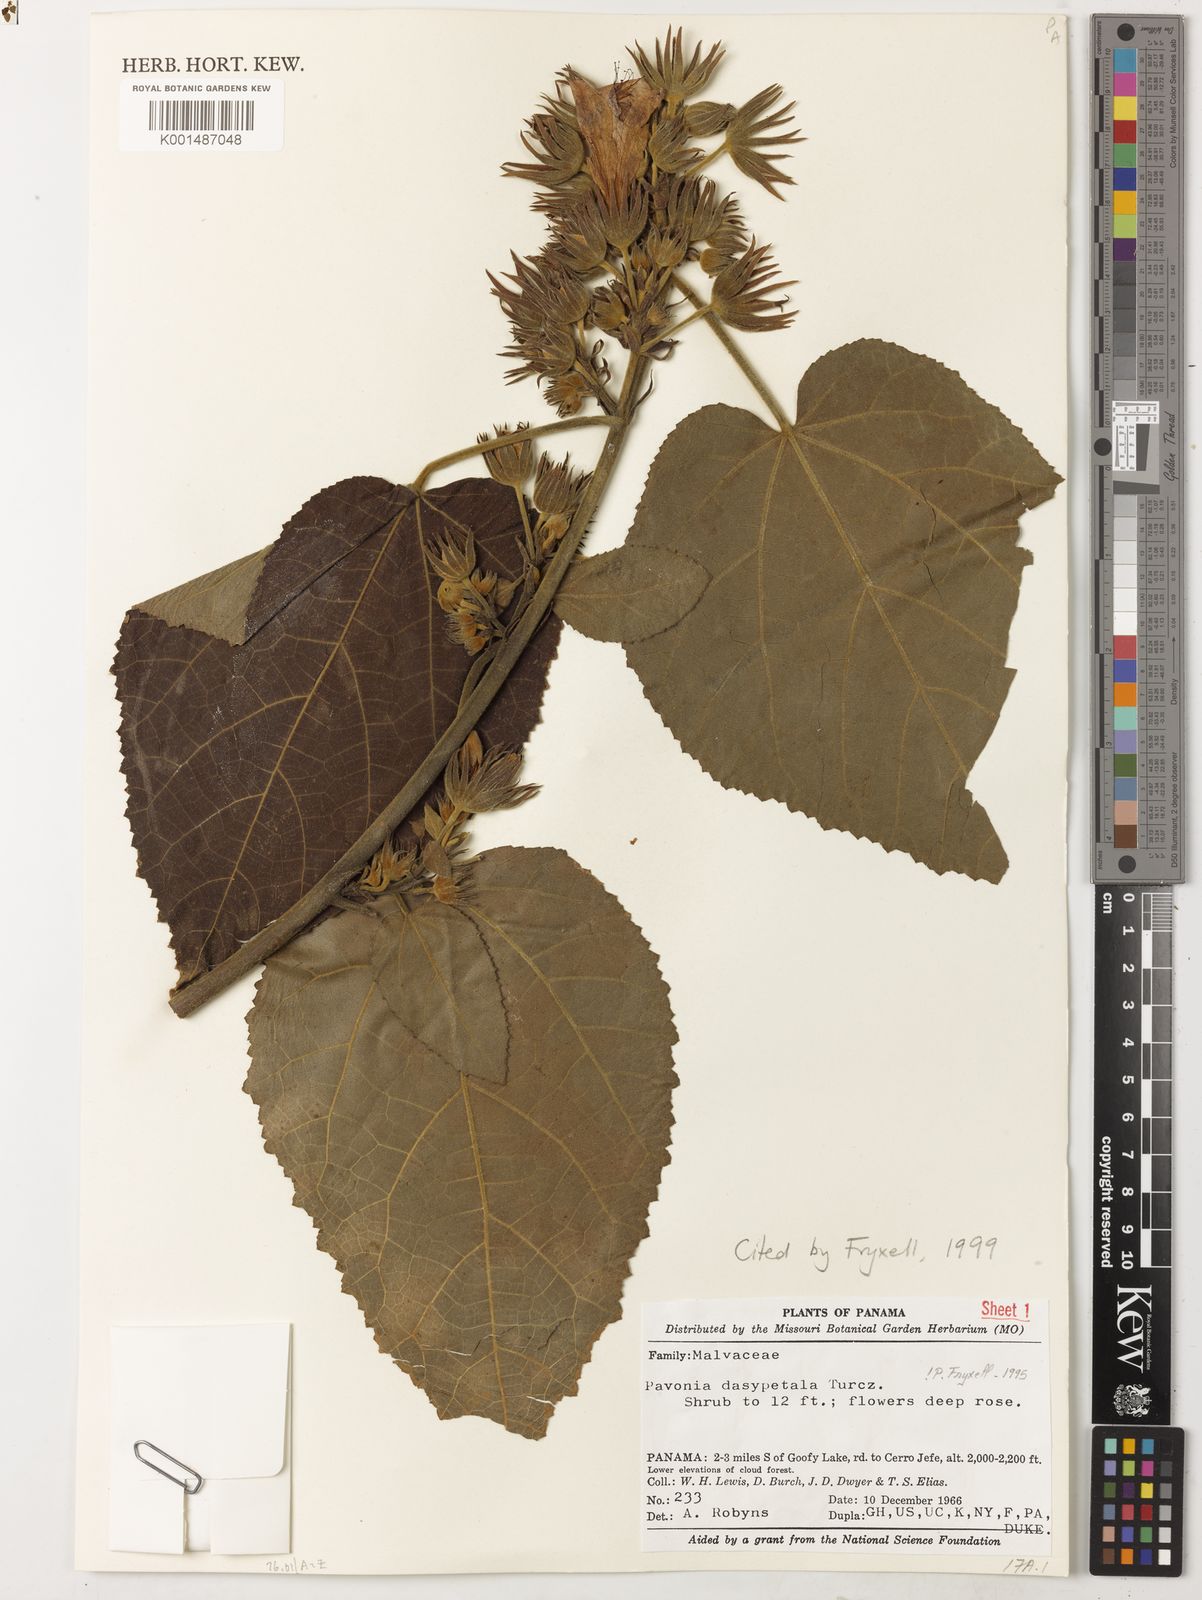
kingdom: Plantae
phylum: Tracheophyta
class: Magnoliopsida
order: Malvales
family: Malvaceae
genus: Pavonia
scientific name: Pavonia dasypetala
